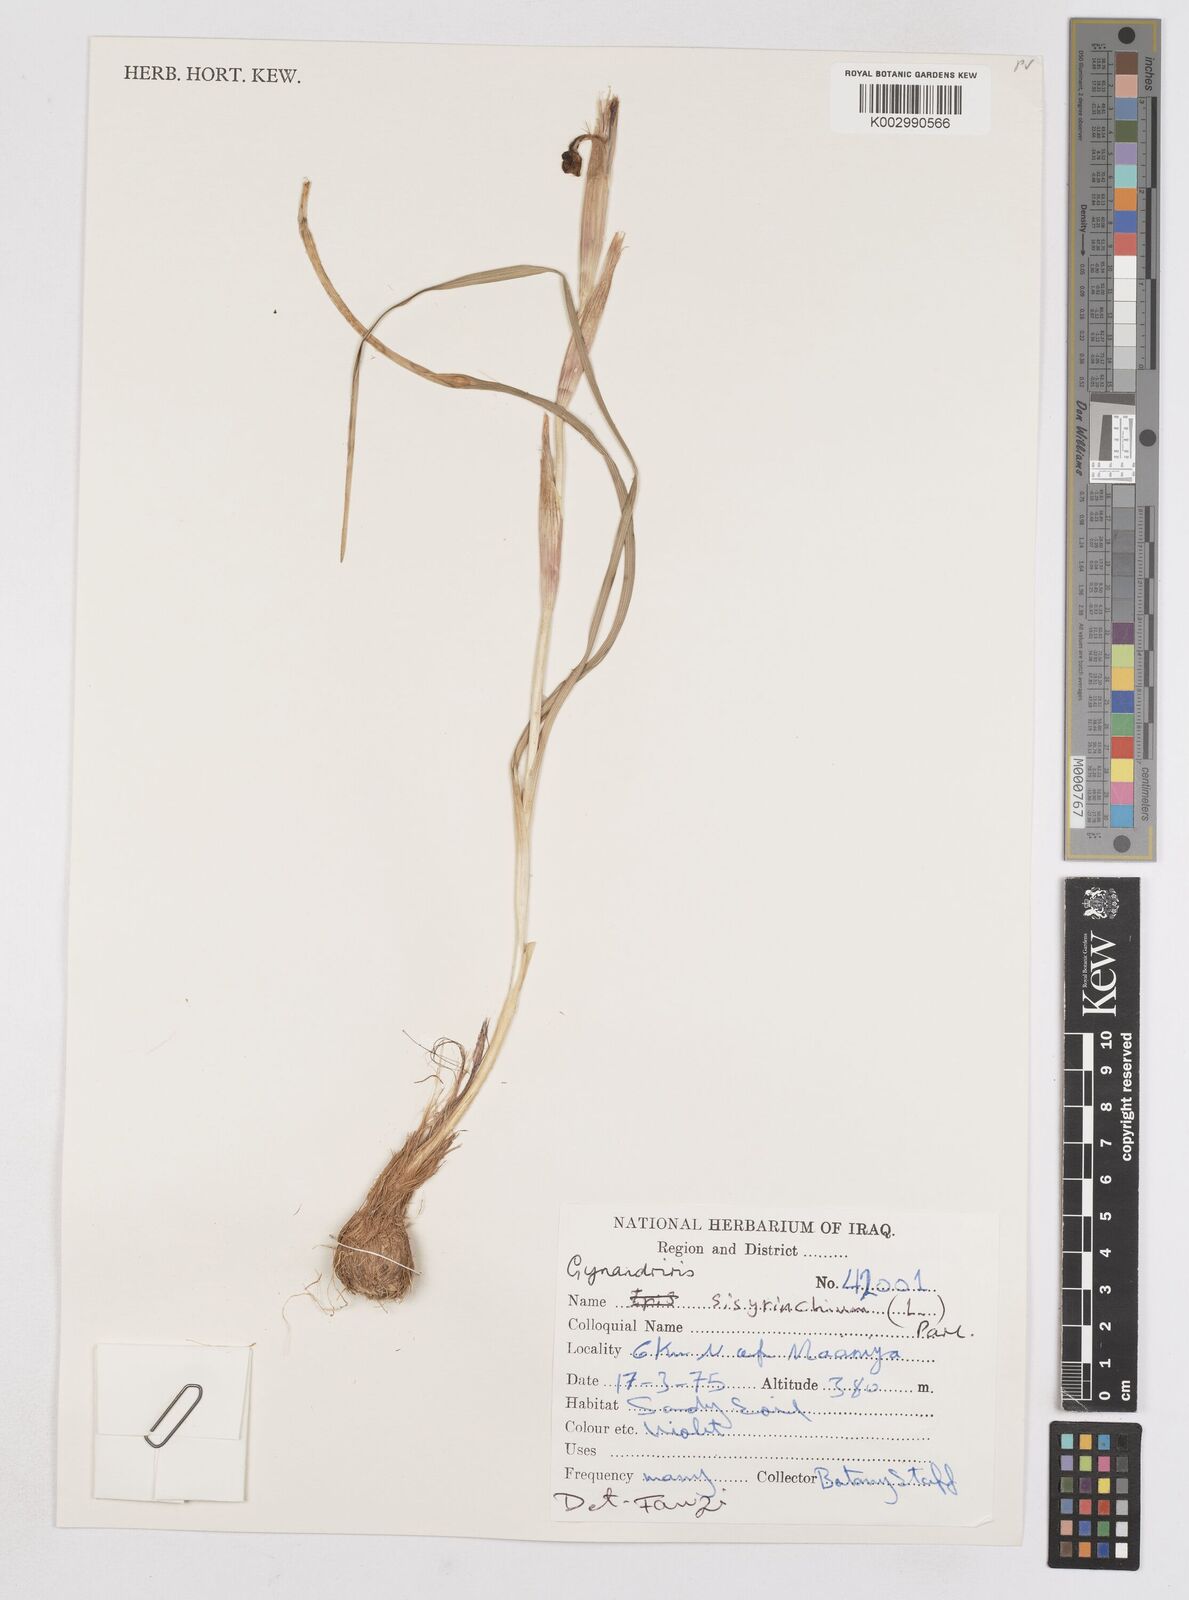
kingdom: Plantae
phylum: Tracheophyta
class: Liliopsida
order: Asparagales
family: Iridaceae
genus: Moraea
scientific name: Moraea sisyrinchium
